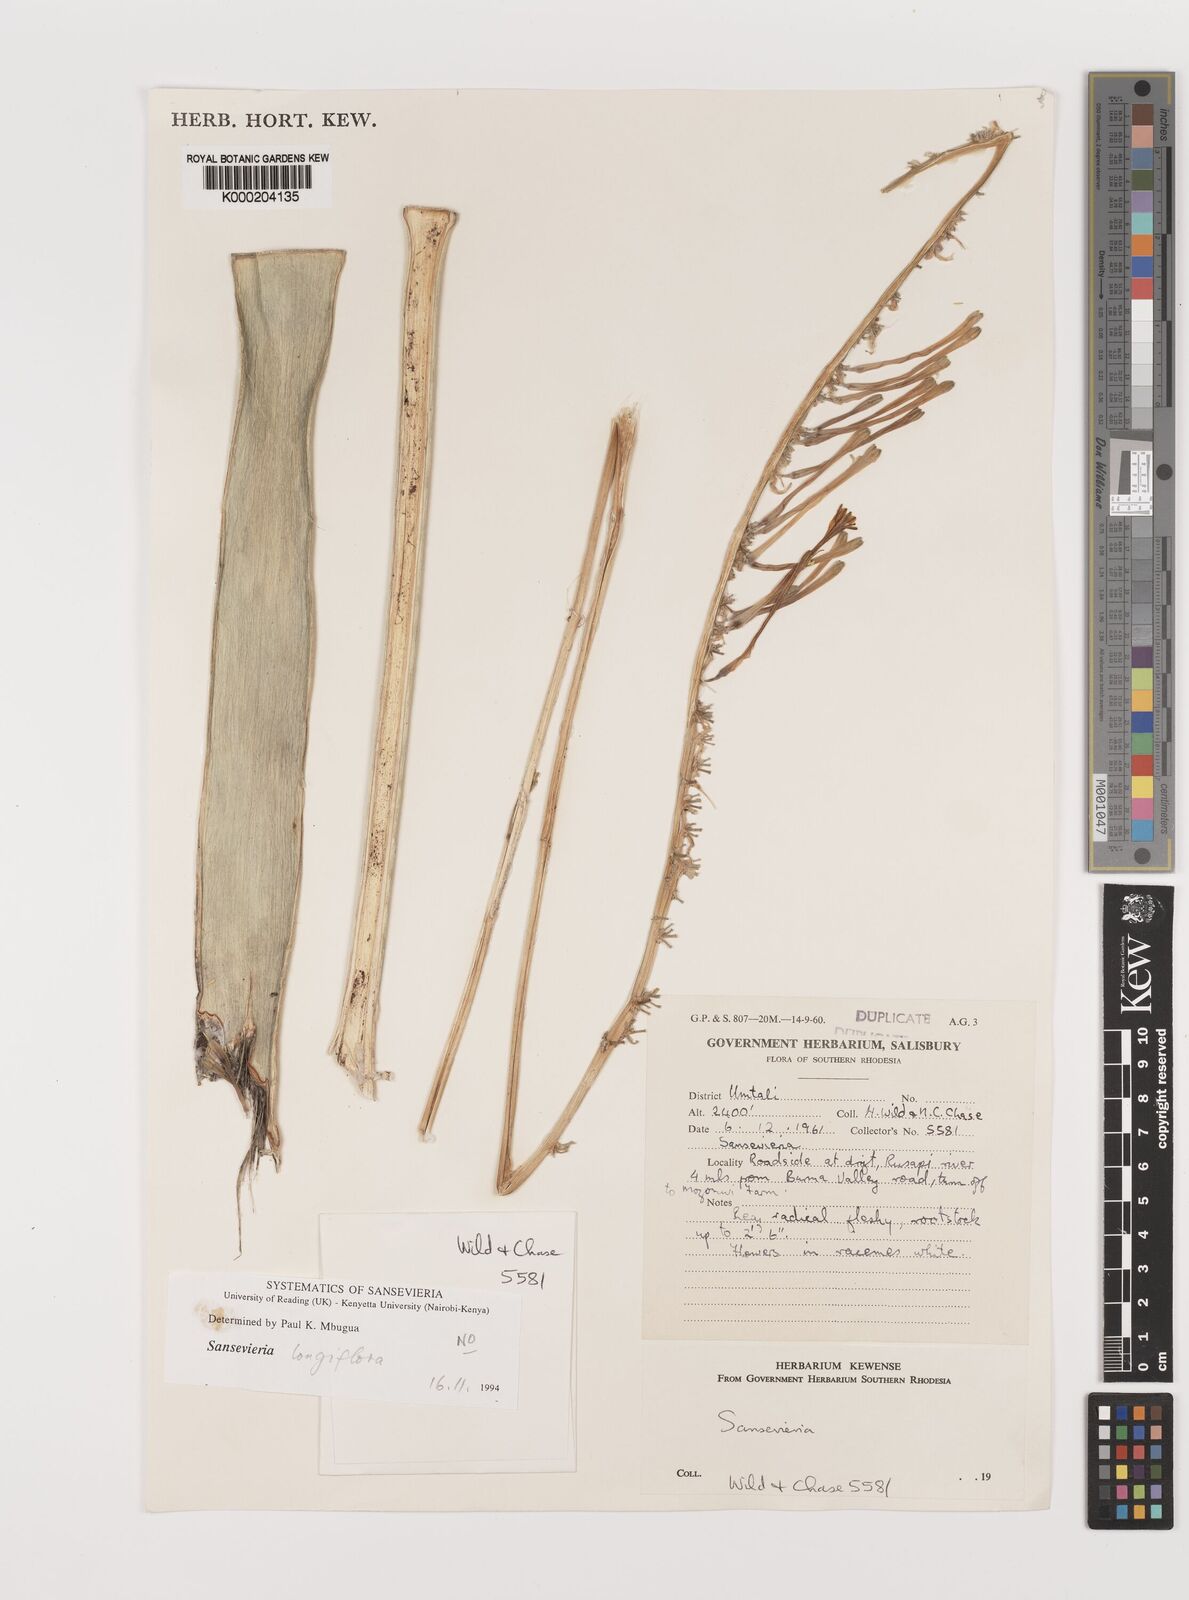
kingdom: Plantae
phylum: Tracheophyta
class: Liliopsida
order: Asparagales
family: Asparagaceae
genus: Dracaena
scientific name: Dracaena
